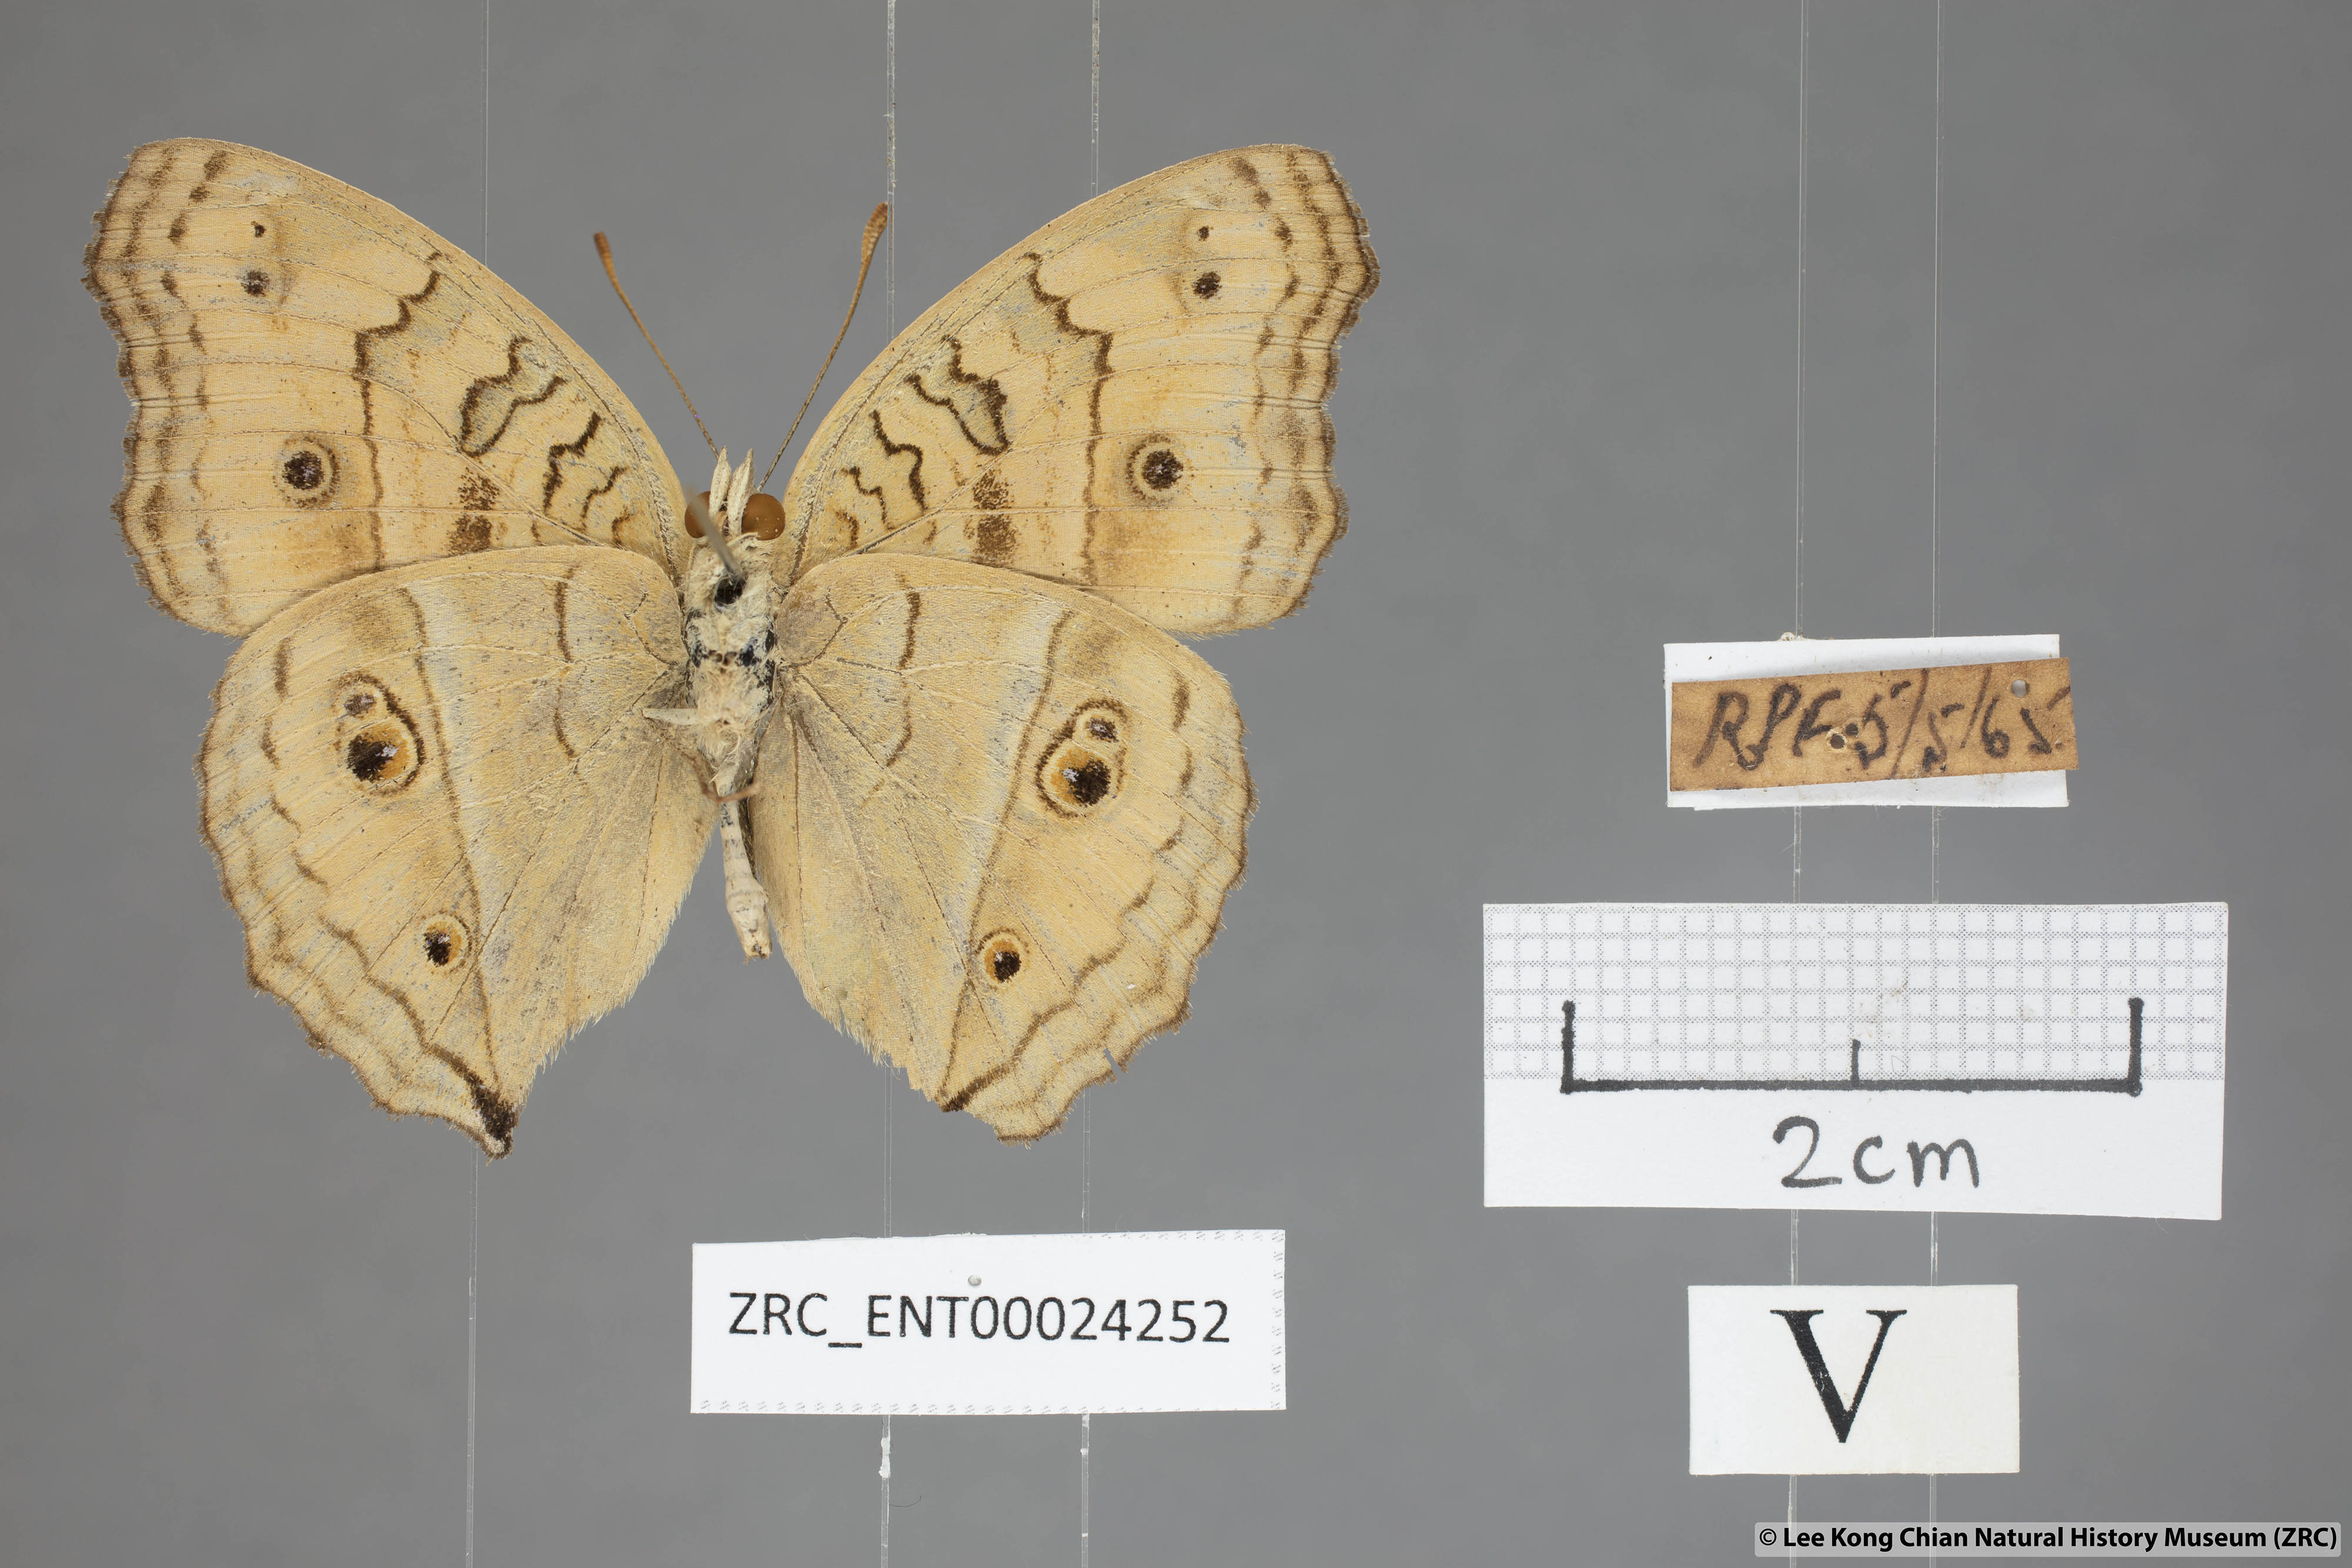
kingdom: Animalia
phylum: Arthropoda
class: Insecta
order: Lepidoptera
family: Nymphalidae
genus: Junonia
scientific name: Junonia almana
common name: Peacock pansy
